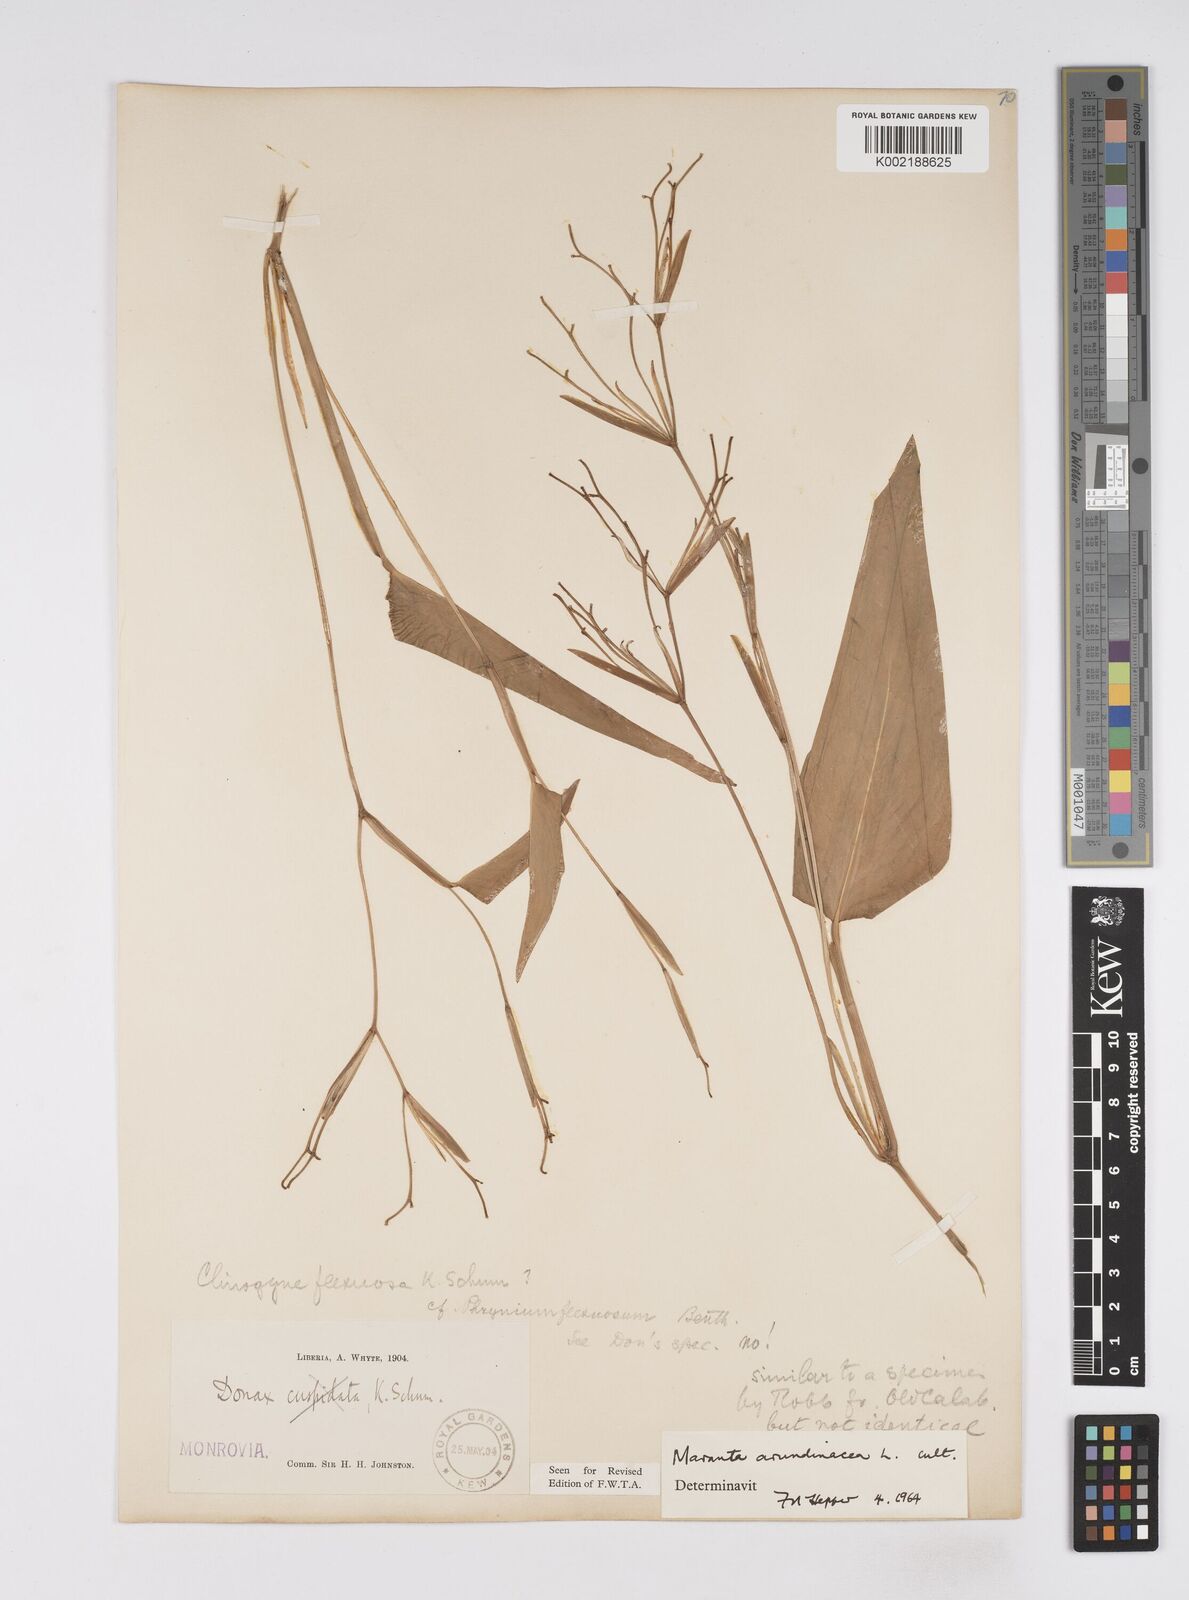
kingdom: Plantae
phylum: Tracheophyta
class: Liliopsida
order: Zingiberales
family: Marantaceae
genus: Maranta
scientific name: Maranta arundinacea
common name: Arrowroot
